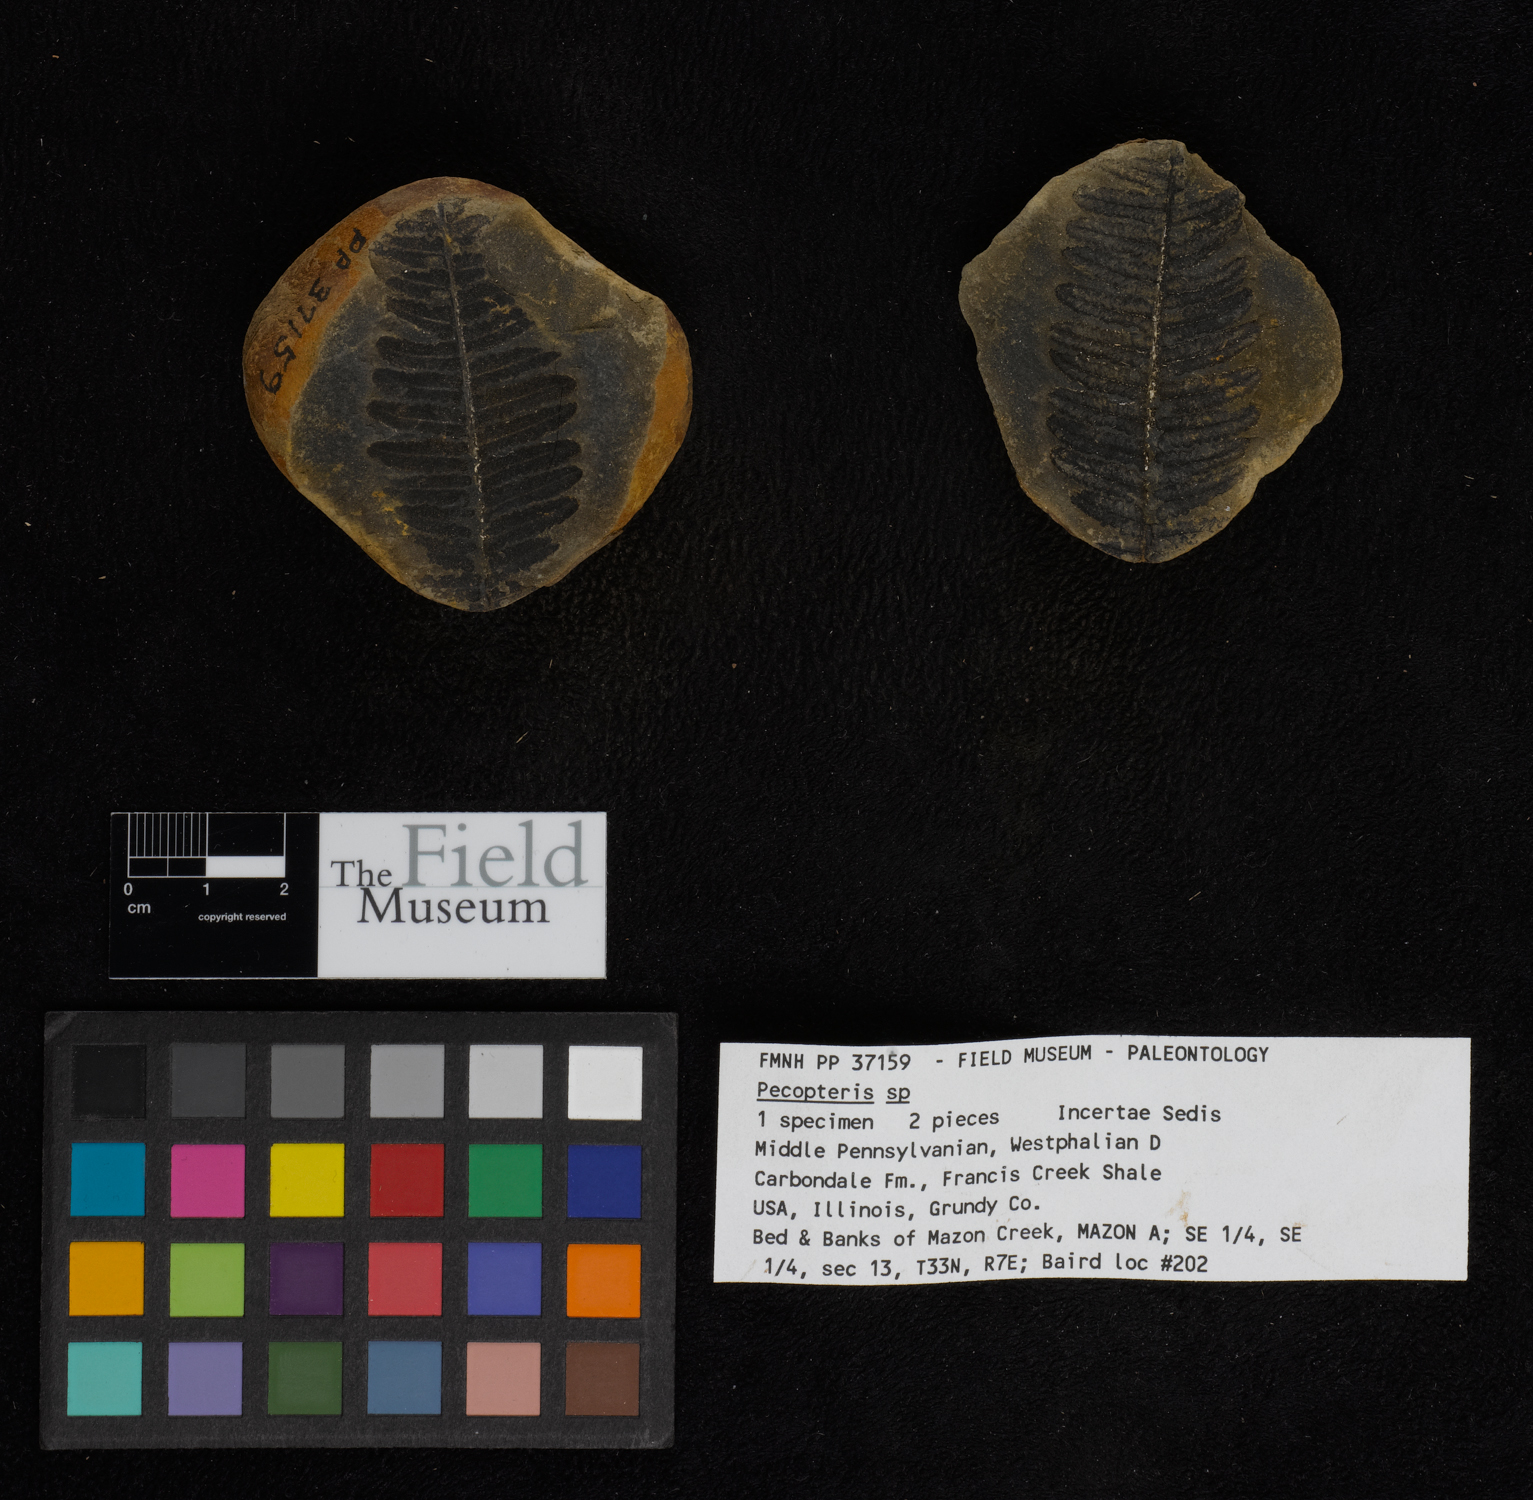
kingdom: Plantae
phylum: Tracheophyta
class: Polypodiopsida
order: Marattiales
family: Asterothecaceae
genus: Pecopteris
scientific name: Pecopteris
